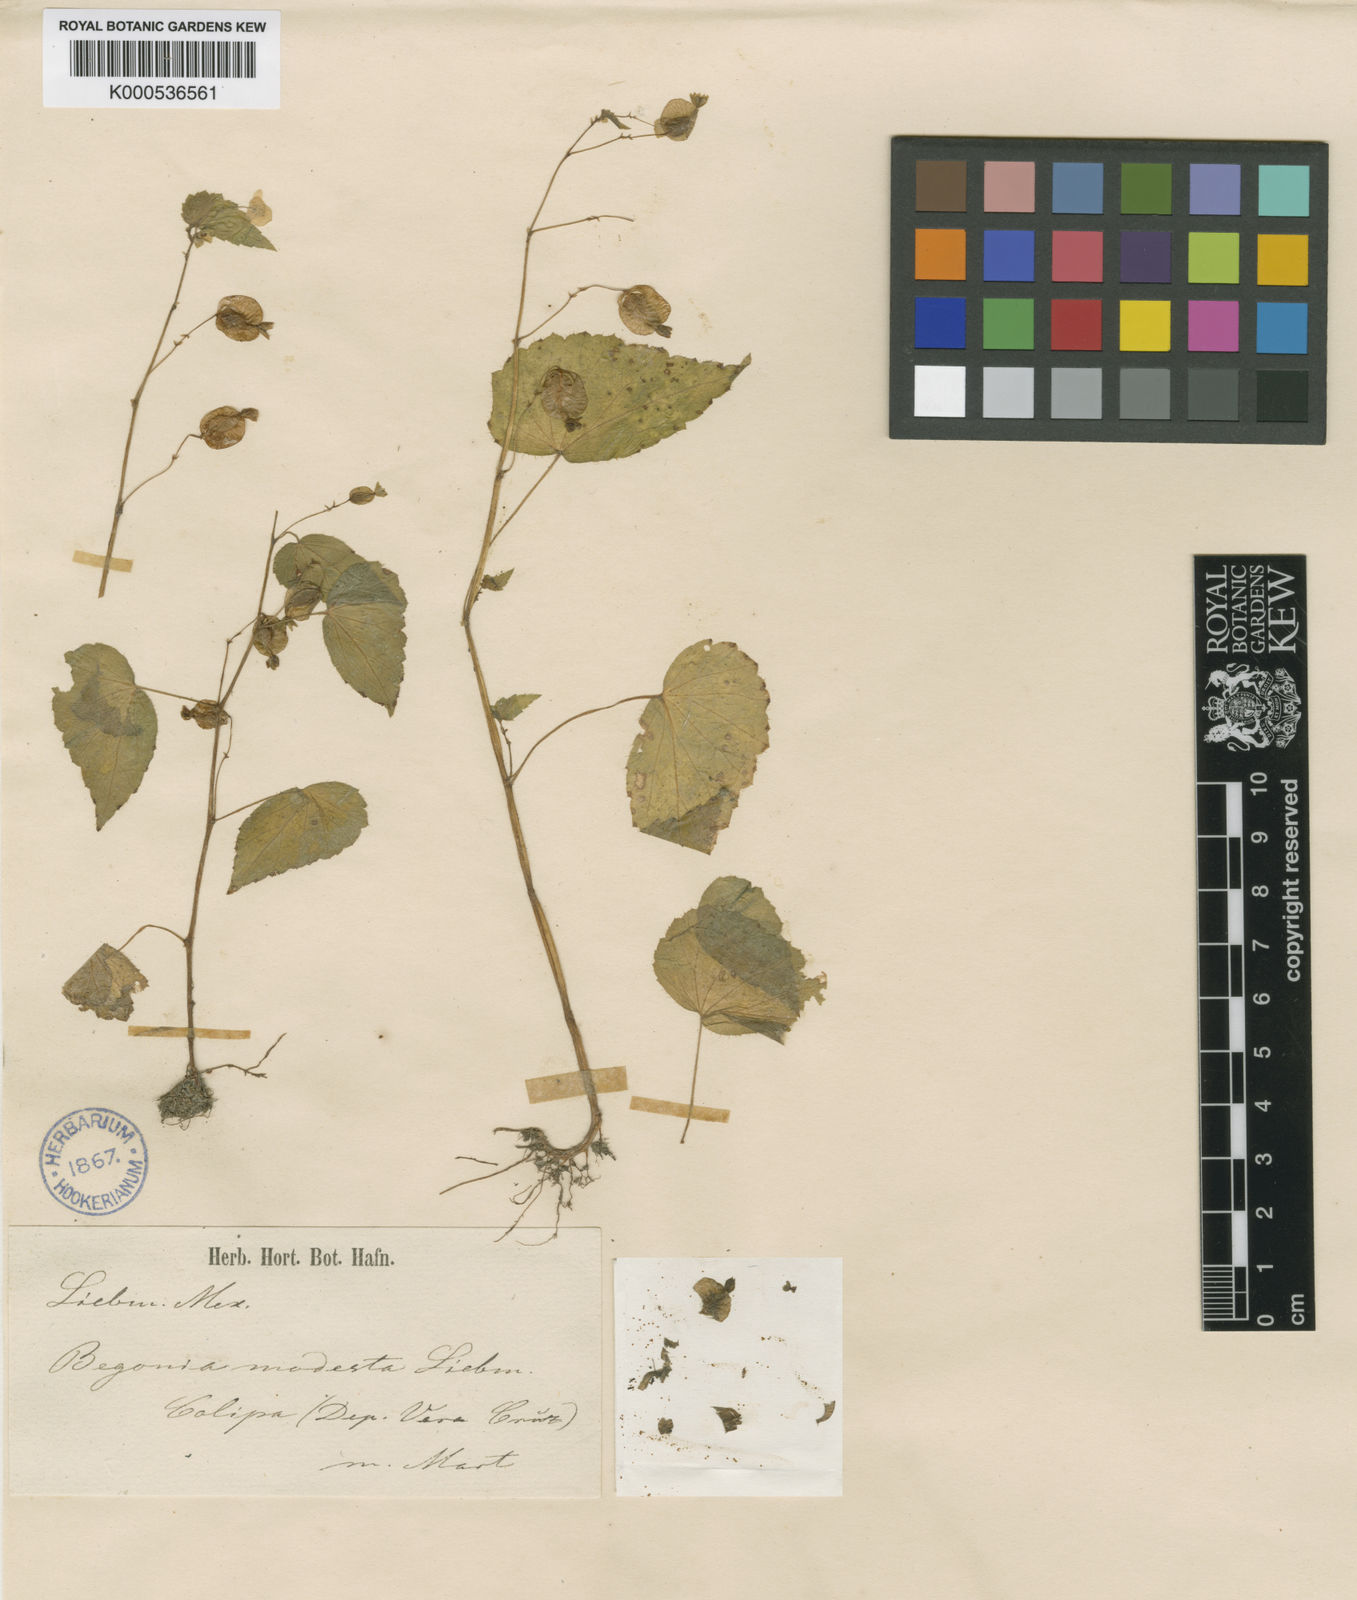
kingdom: Plantae
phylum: Tracheophyta
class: Magnoliopsida
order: Cucurbitales
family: Begoniaceae
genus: Begonia
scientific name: Begonia wallichiana
